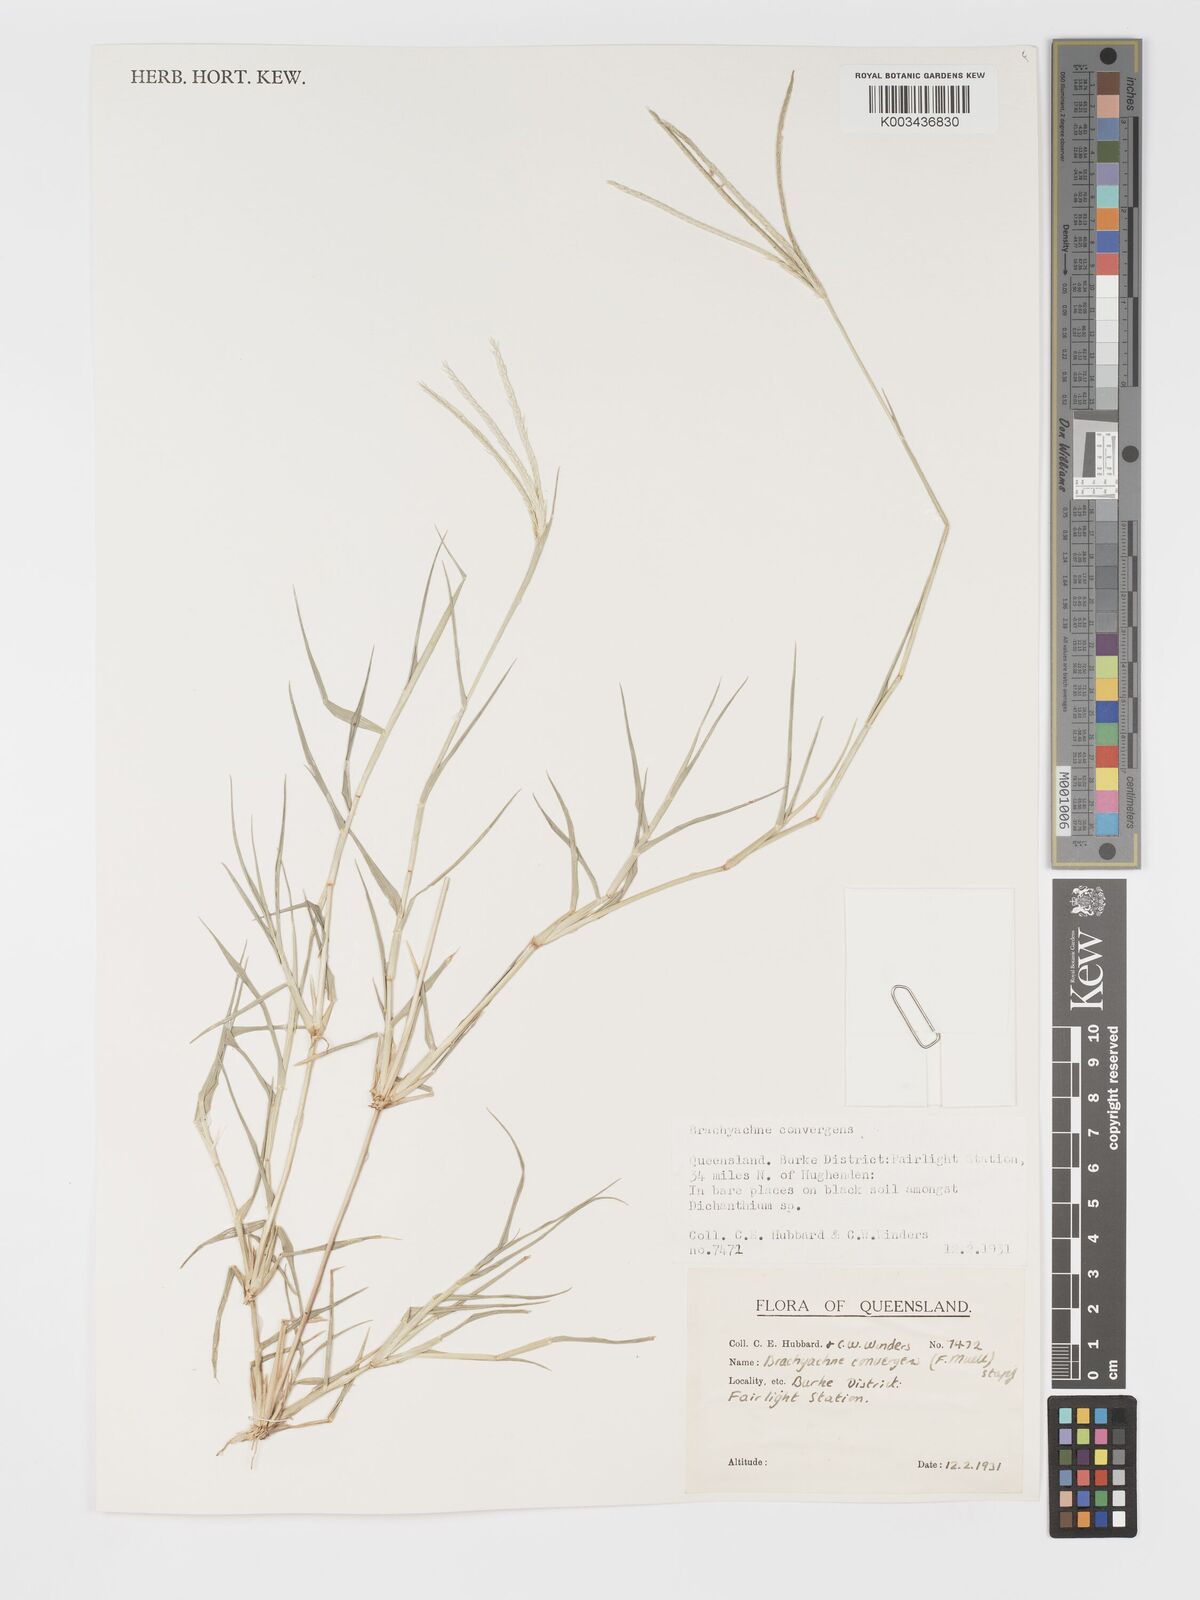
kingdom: Plantae
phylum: Tracheophyta
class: Liliopsida
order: Poales
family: Poaceae
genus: Cynodon
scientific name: Cynodon convergens
